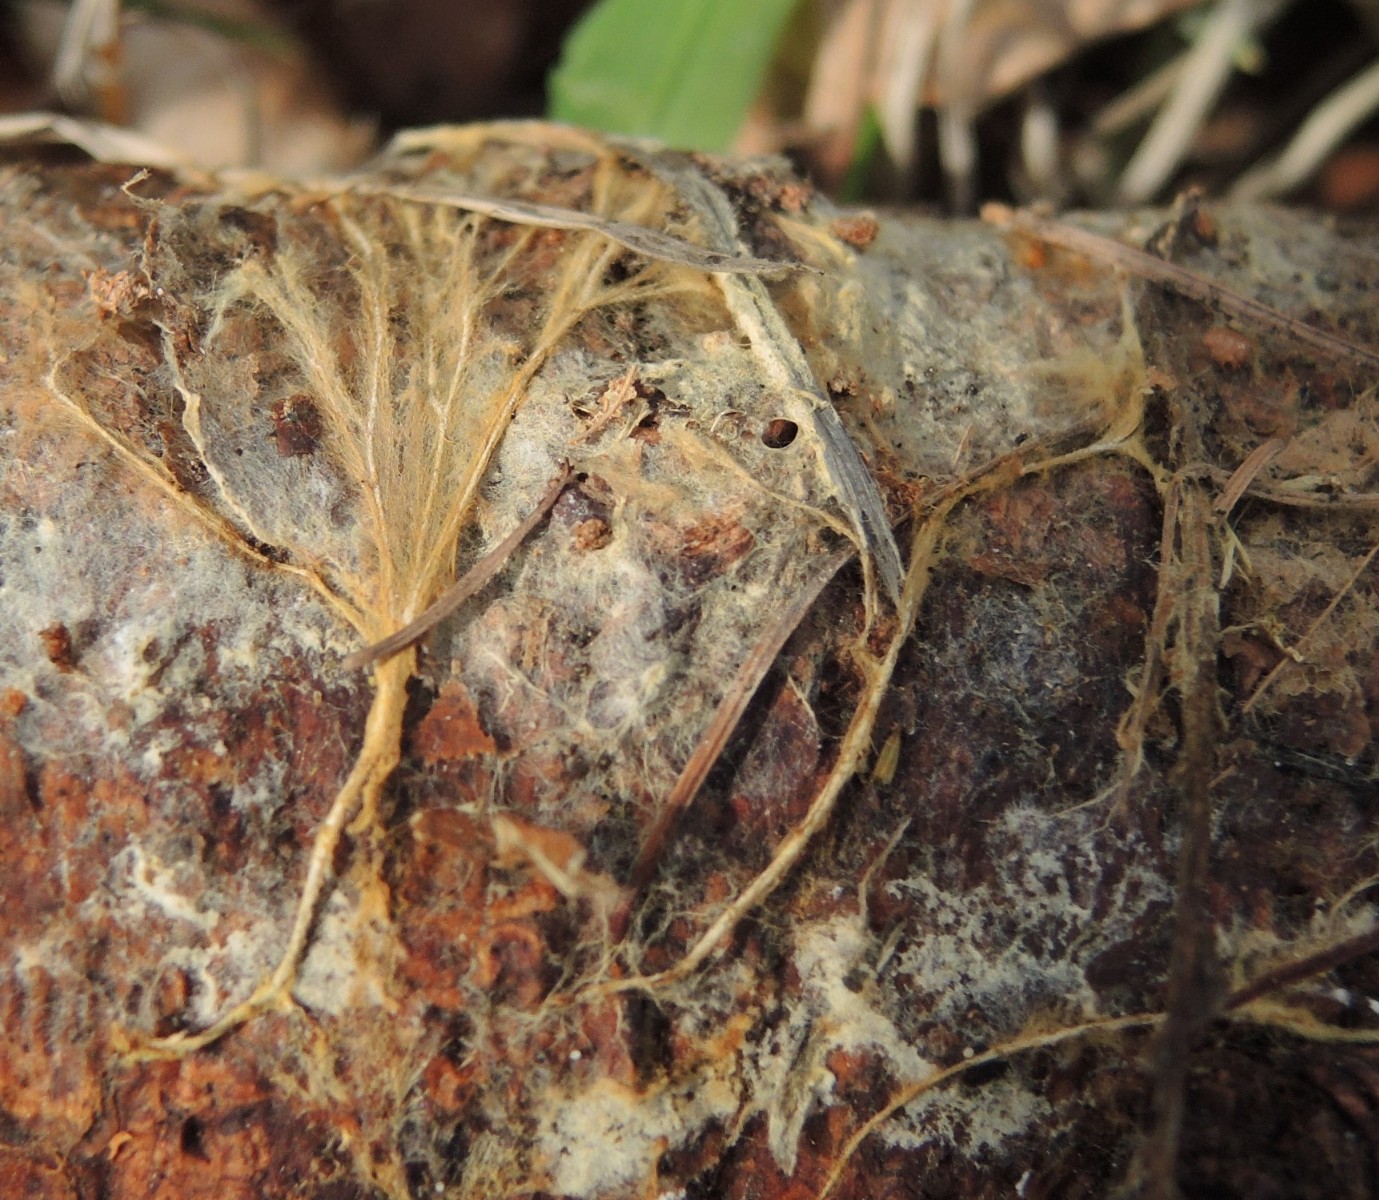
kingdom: Fungi
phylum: Basidiomycota
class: Agaricomycetes
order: Atheliales
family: Atheliaceae
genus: Leptosporomyces
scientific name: Leptosporomyces fuscostratus
